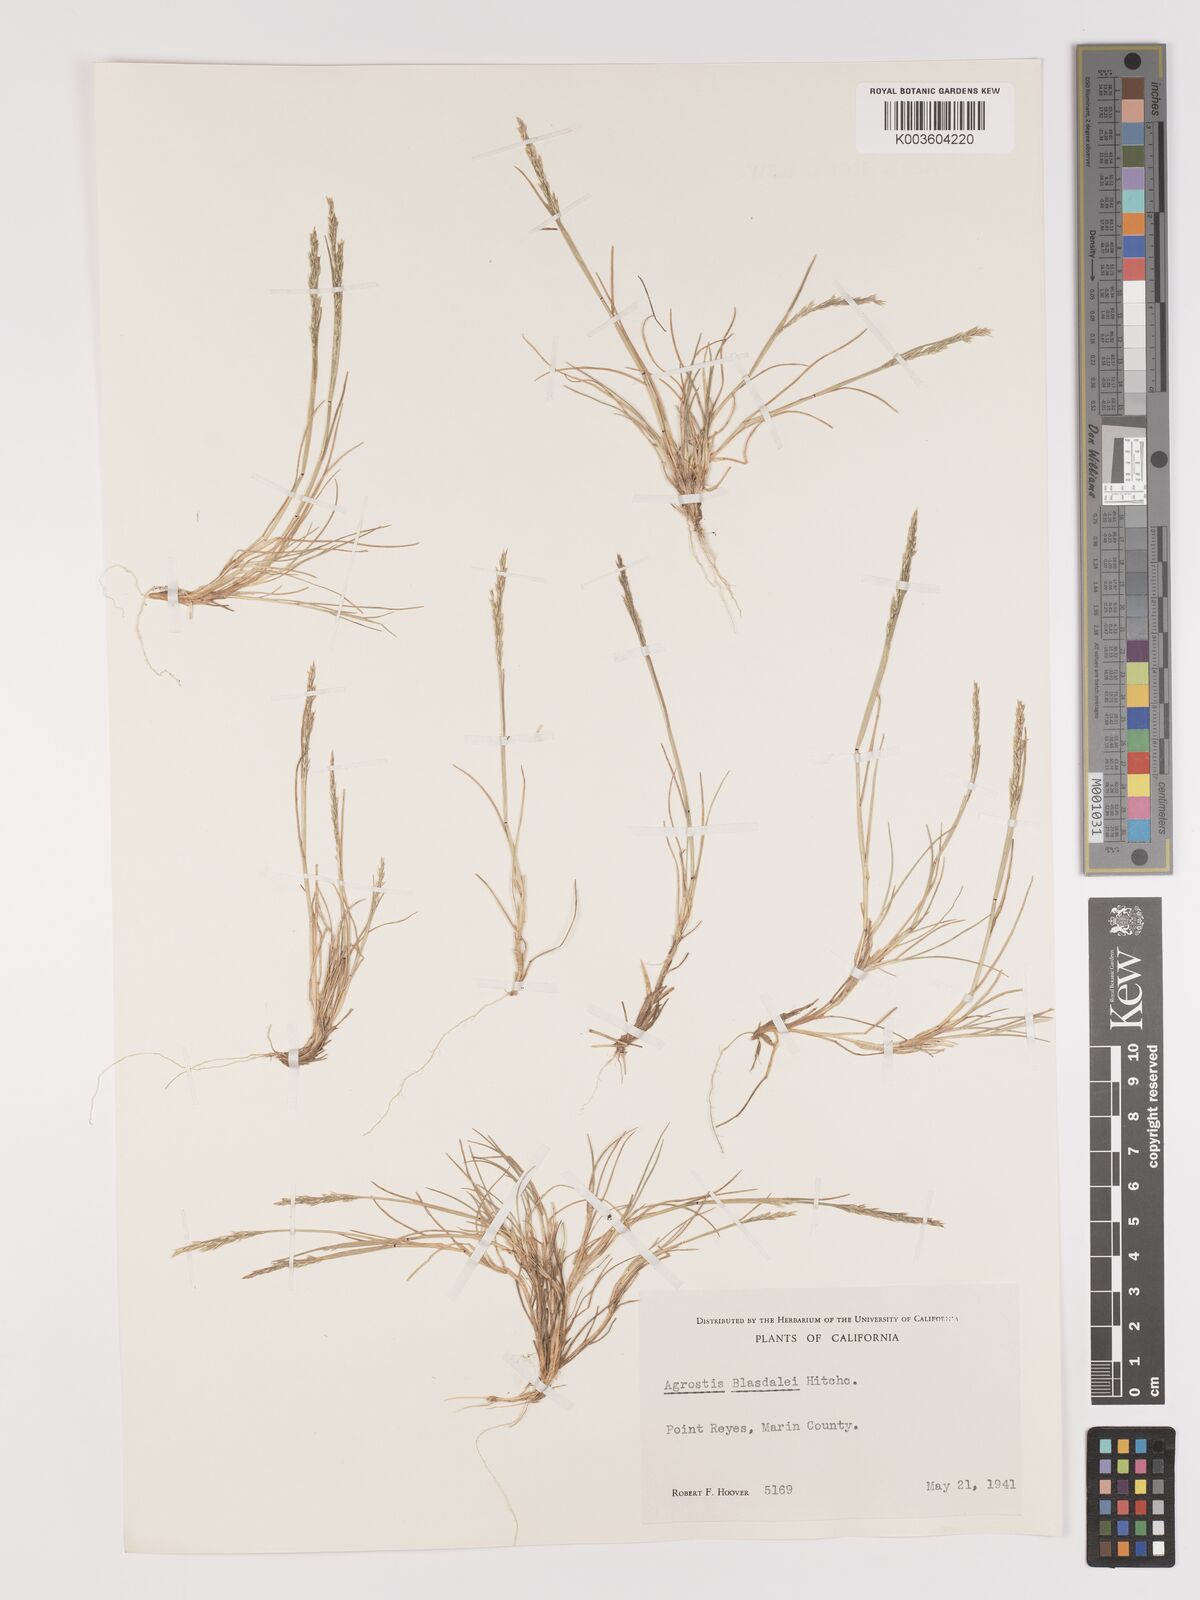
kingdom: Plantae
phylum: Tracheophyta
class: Liliopsida
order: Poales
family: Poaceae
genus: Agrostis
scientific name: Agrostis blasdalei
